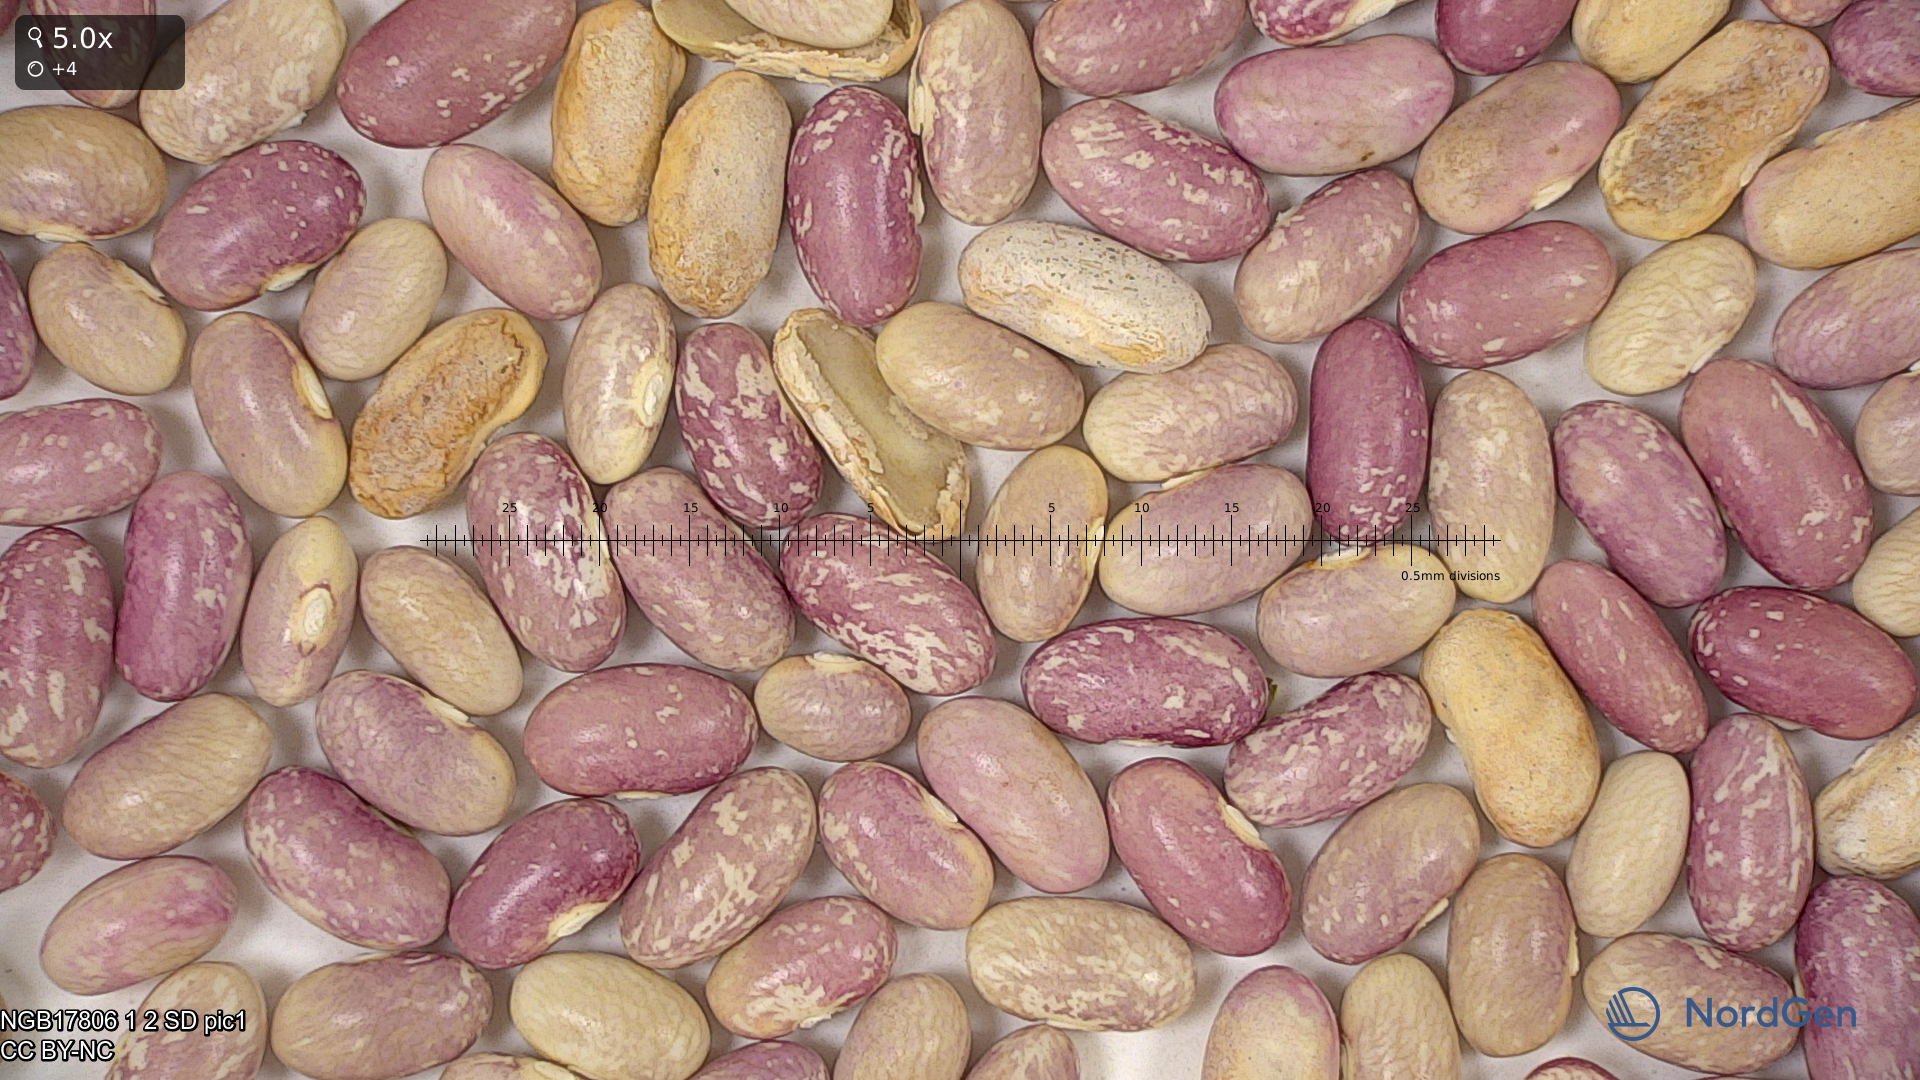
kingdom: Plantae
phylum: Tracheophyta
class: Magnoliopsida
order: Fabales
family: Fabaceae
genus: Phaseolus
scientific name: Phaseolus vulgaris
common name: Bean
